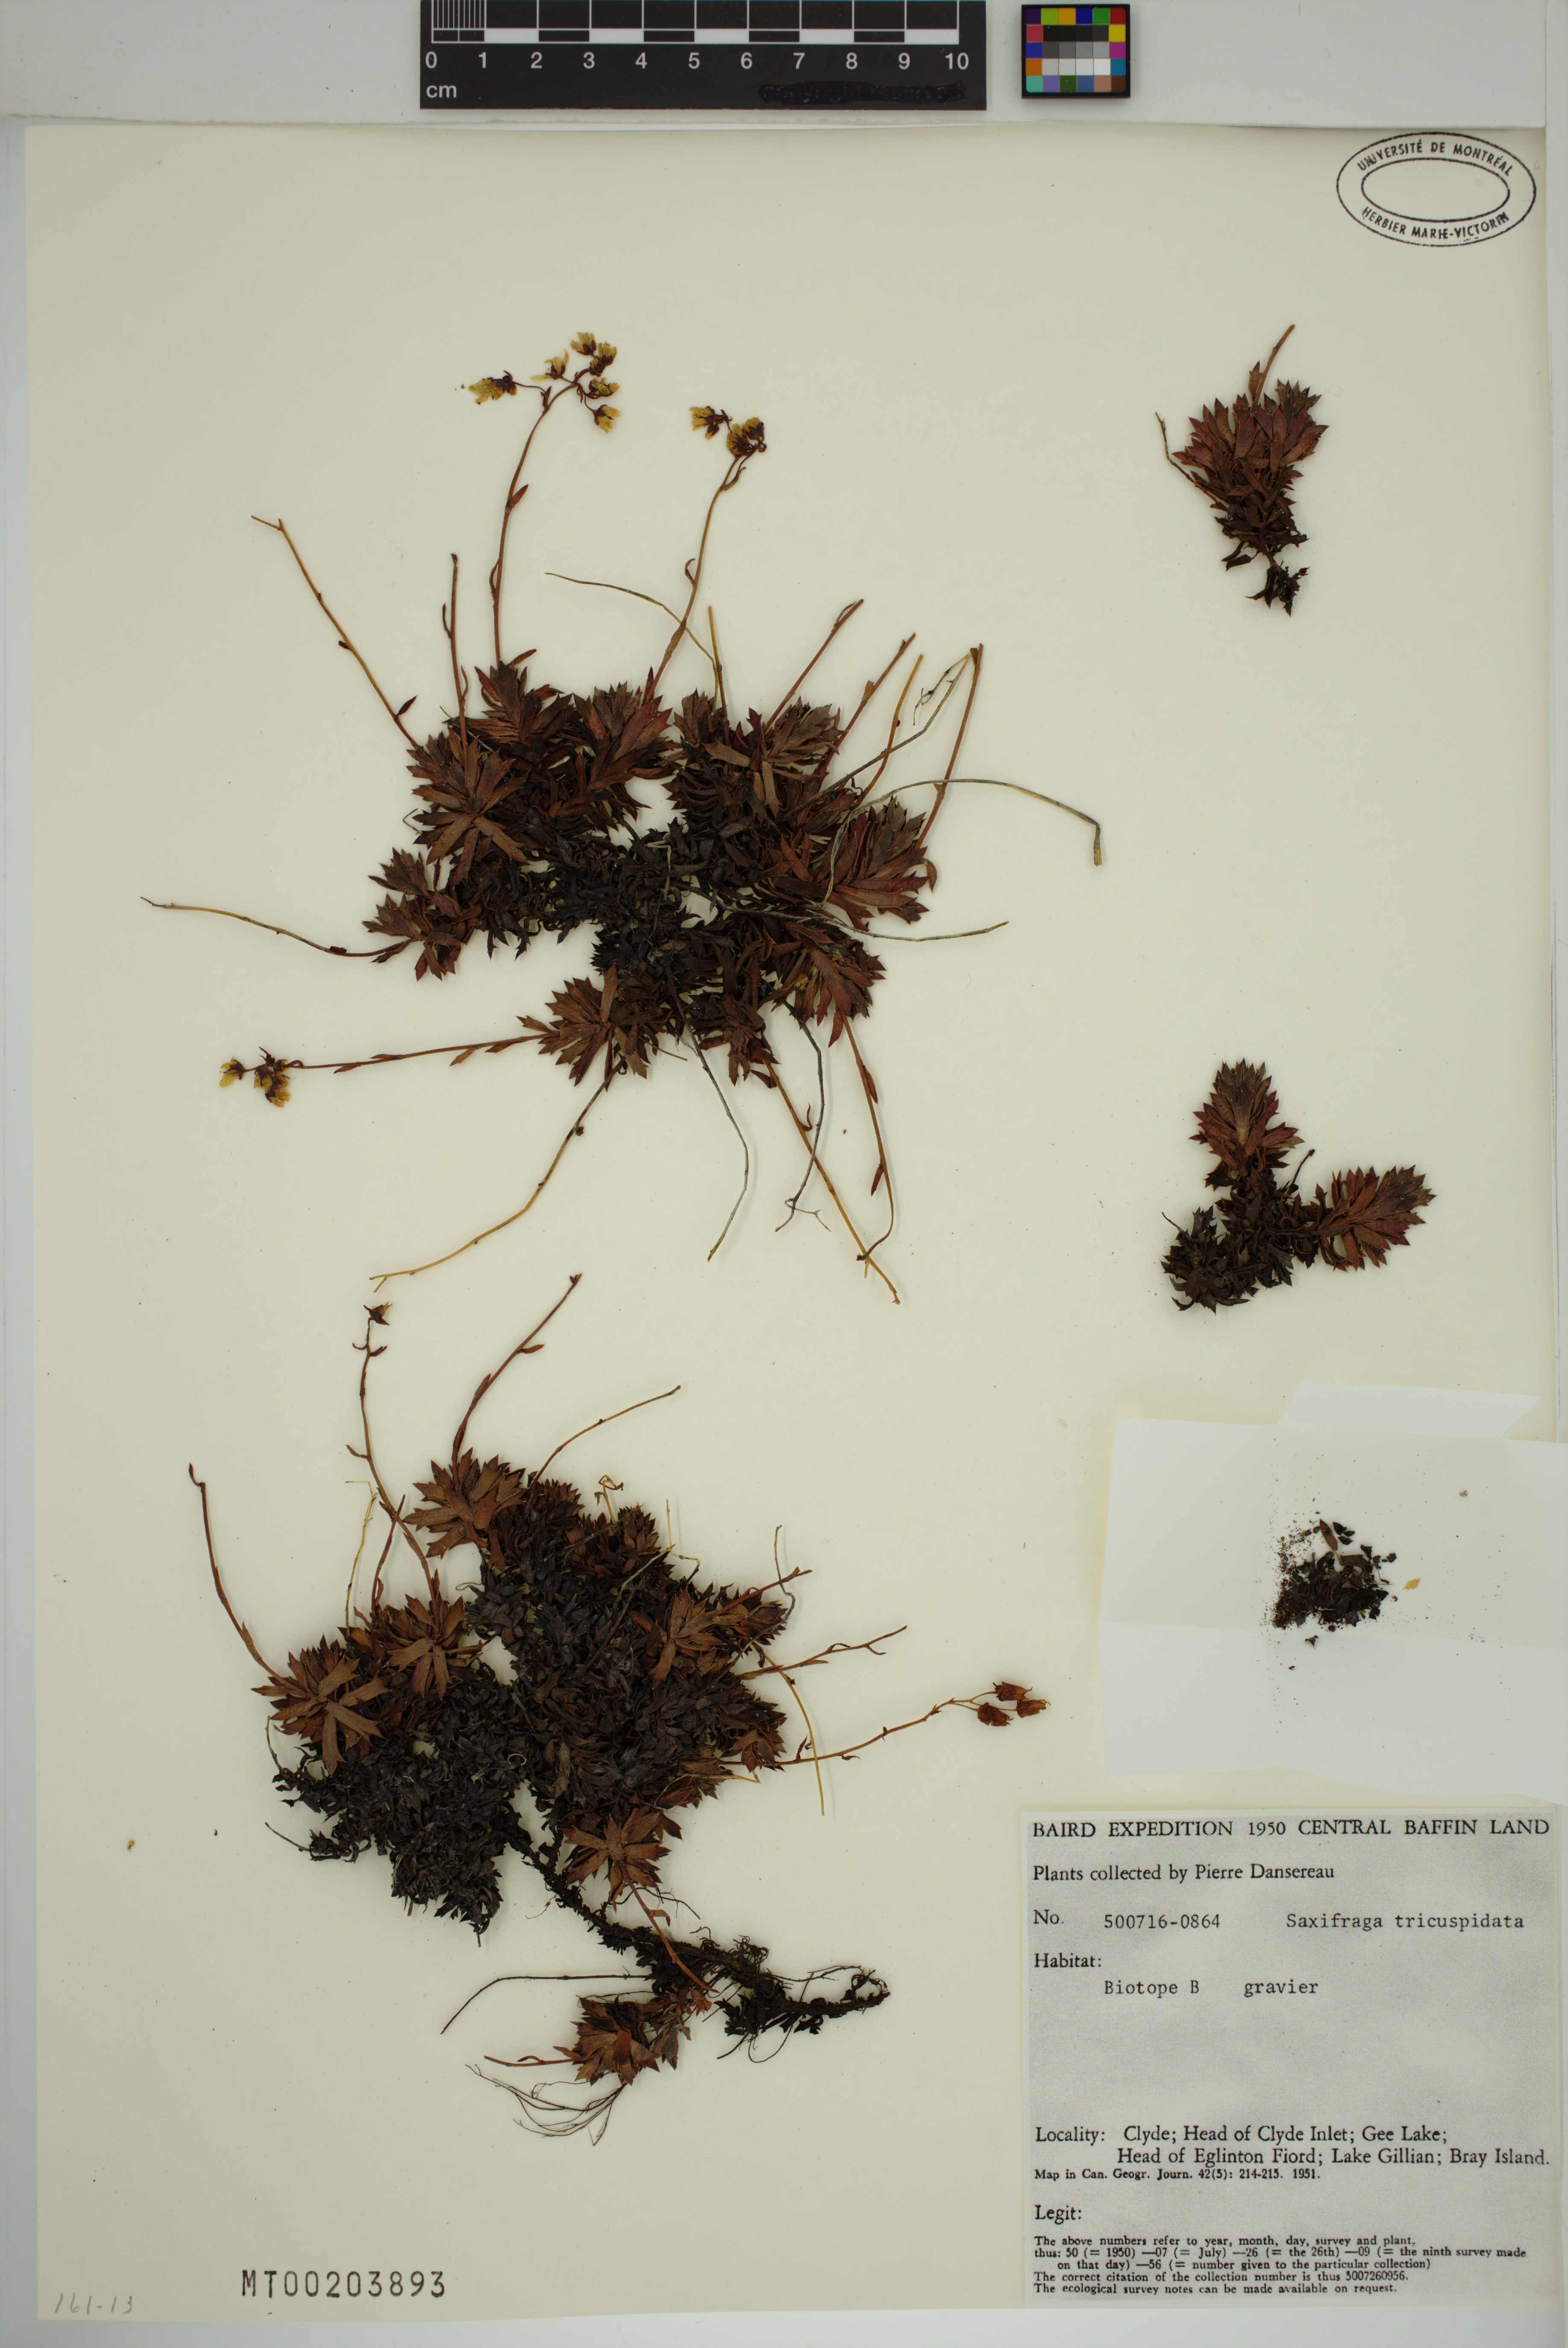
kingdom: Plantae
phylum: Tracheophyta
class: Magnoliopsida
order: Saxifragales
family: Saxifragaceae
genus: Saxifraga
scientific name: Saxifraga tricuspidata
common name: Prickly saxifrage
